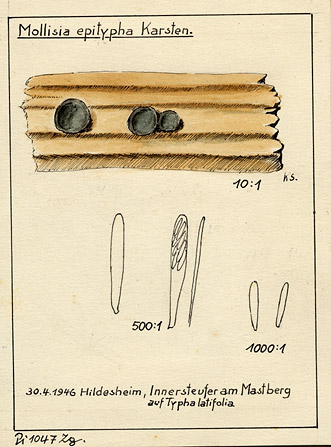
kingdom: Fungi
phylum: Ascomycota
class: Leotiomycetes
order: Helotiales
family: Mollisiaceae
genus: Mollisia
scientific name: Mollisia palustris
